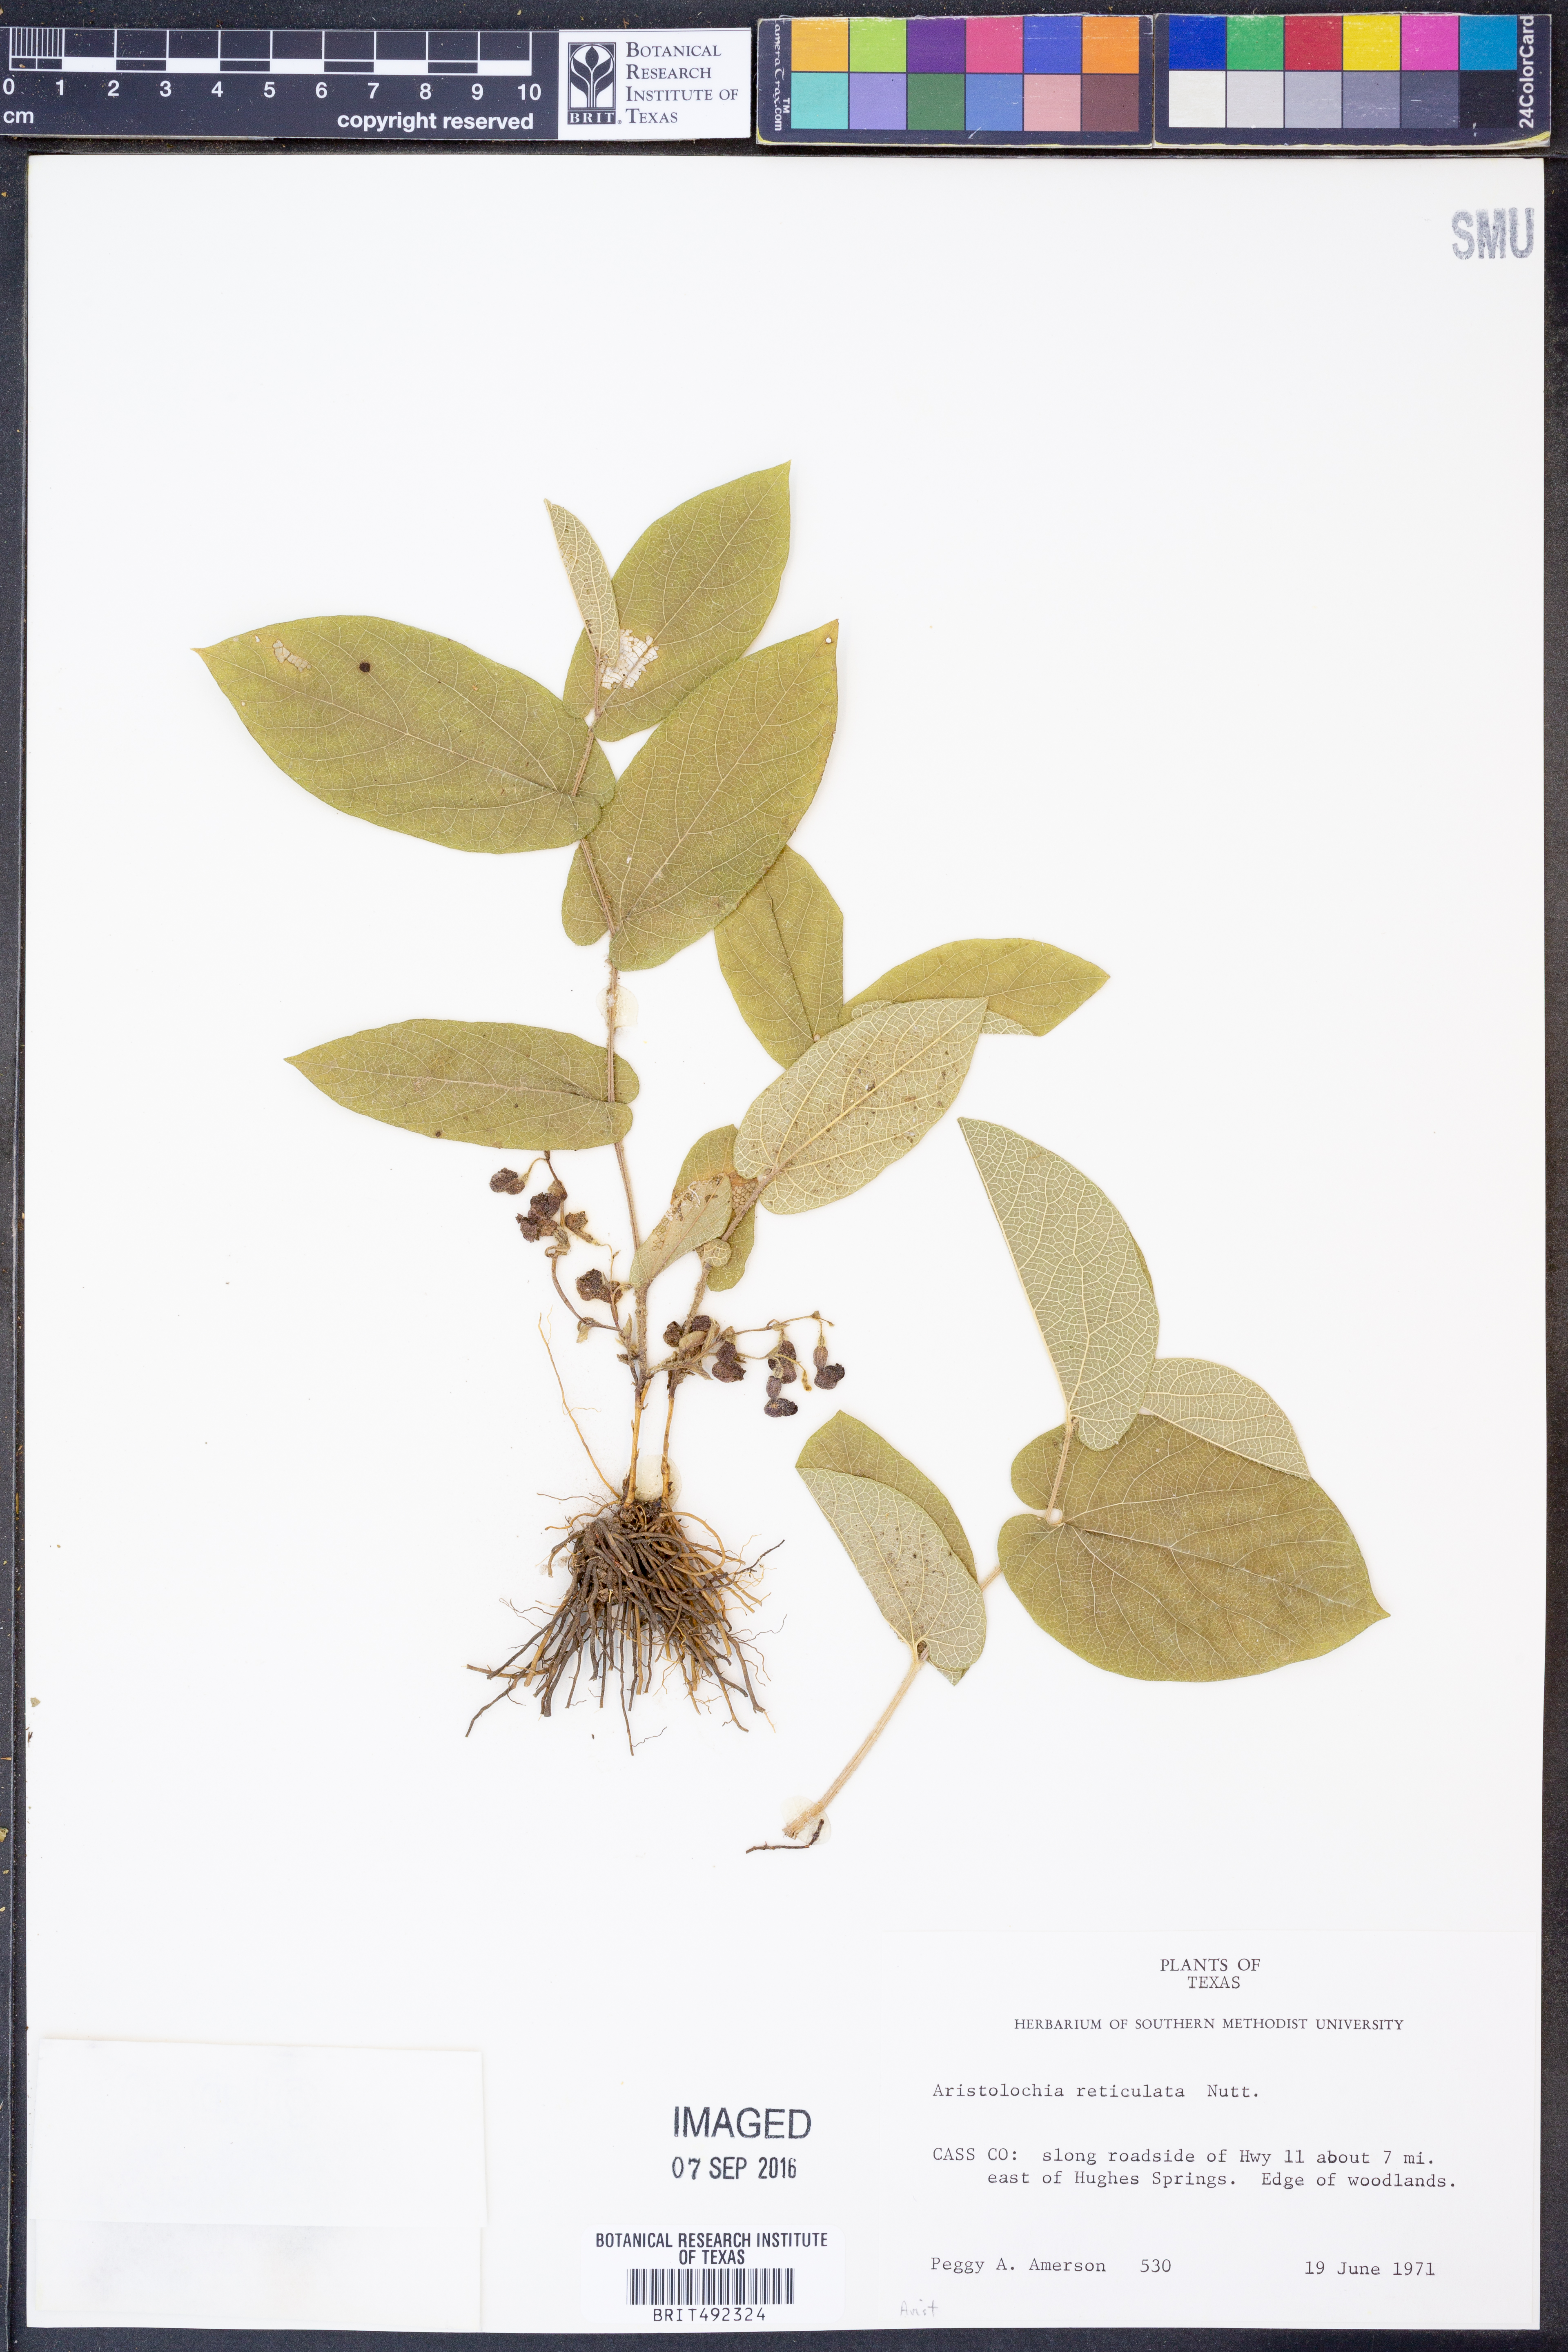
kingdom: Plantae
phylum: Tracheophyta
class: Magnoliopsida
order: Piperales
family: Aristolochiaceae
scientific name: Aristolochiaceae
